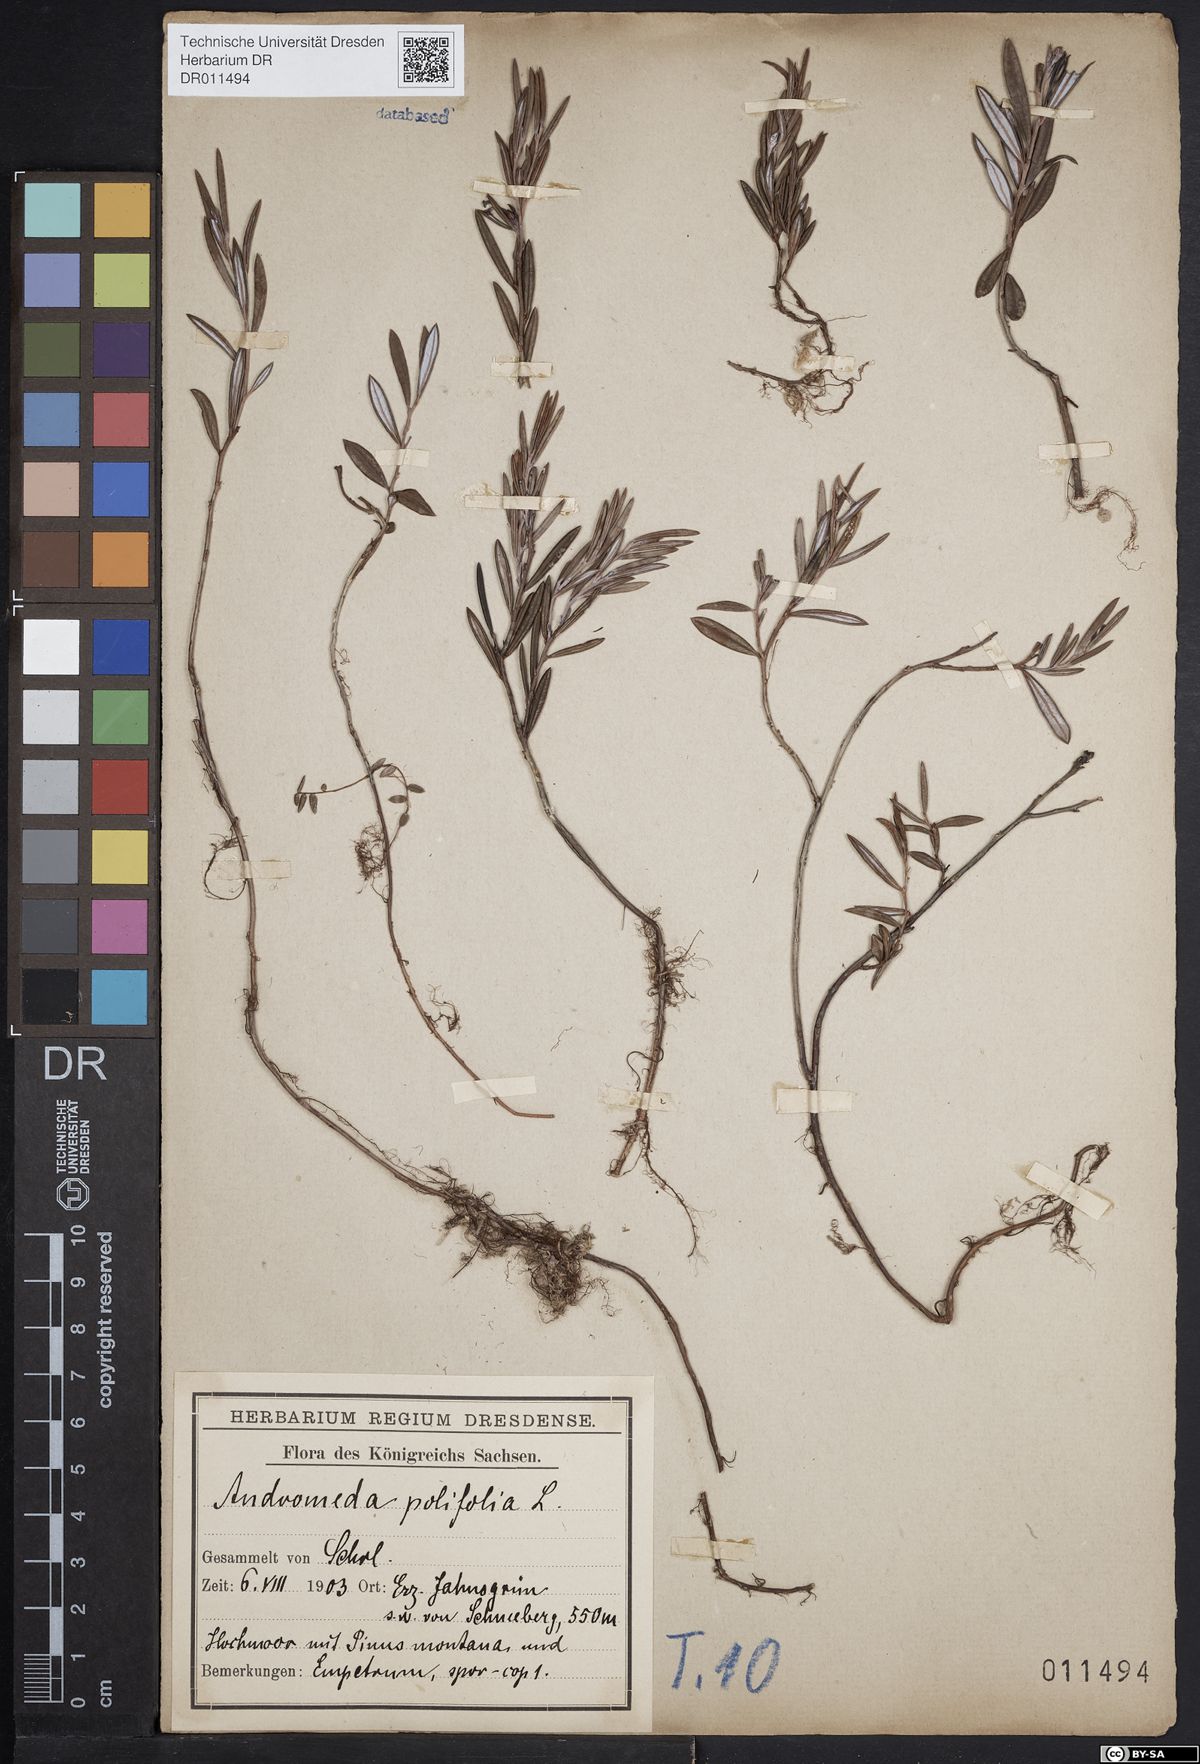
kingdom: Plantae
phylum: Tracheophyta
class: Magnoliopsida
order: Ericales
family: Ericaceae
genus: Andromeda
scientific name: Andromeda polifolia
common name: Bog-rosemary
